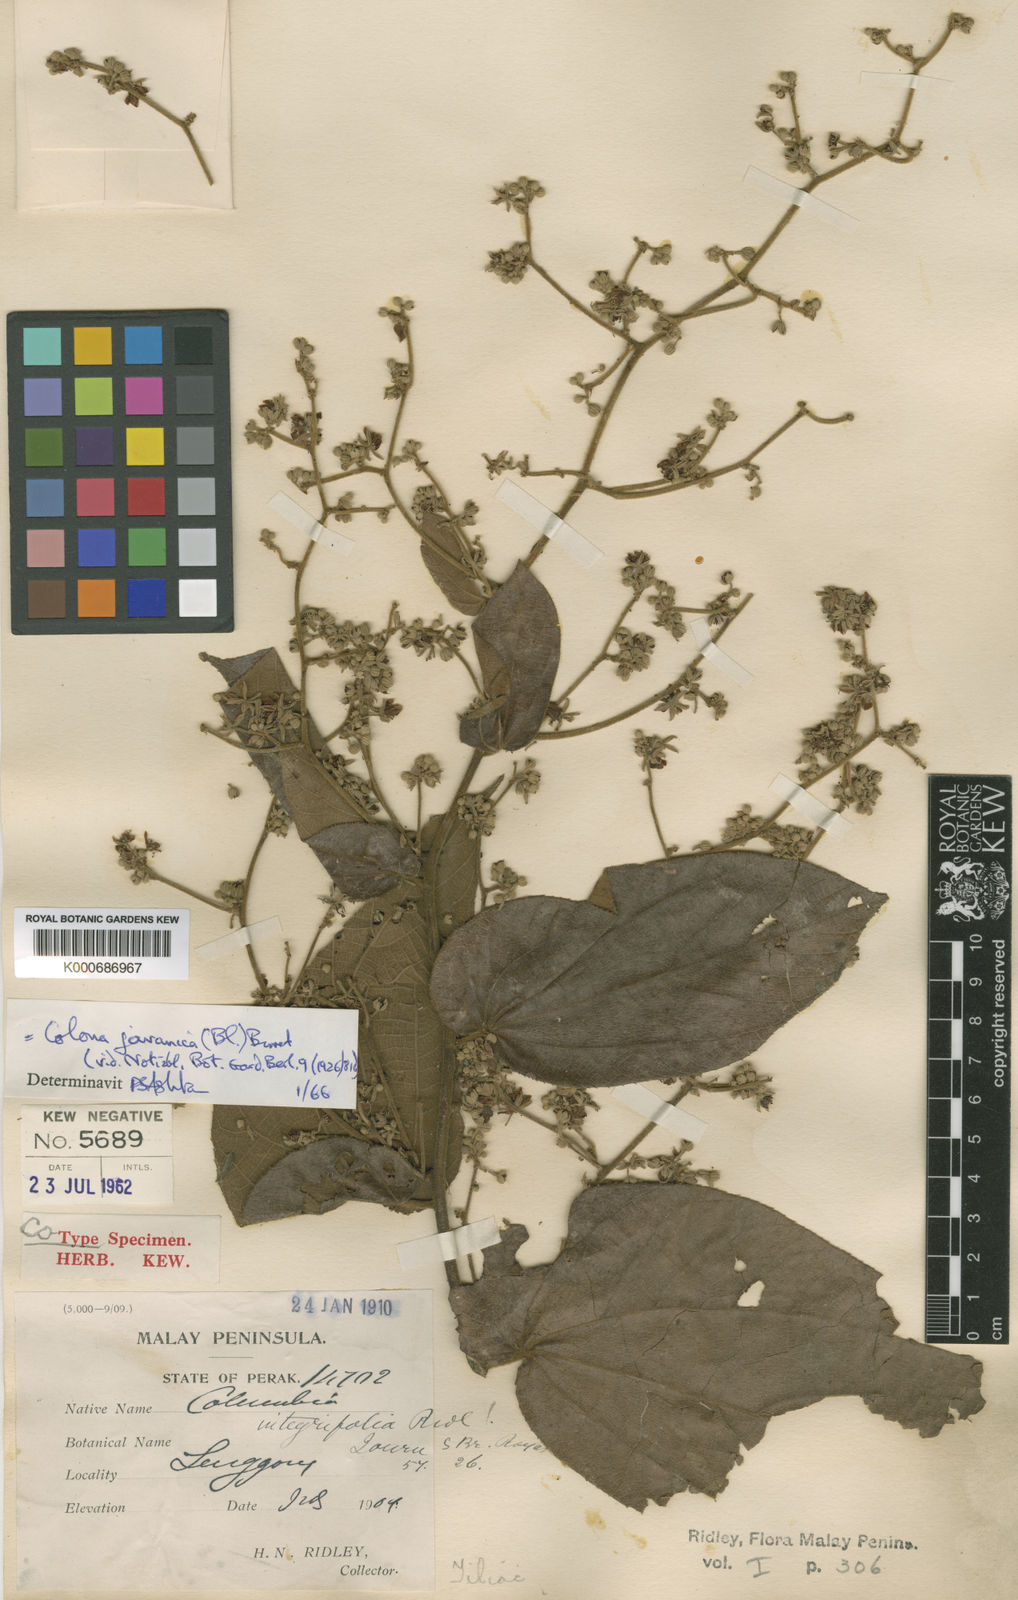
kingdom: Plantae
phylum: Tracheophyta
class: Magnoliopsida
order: Malvales
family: Malvaceae
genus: Colona
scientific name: Colona
